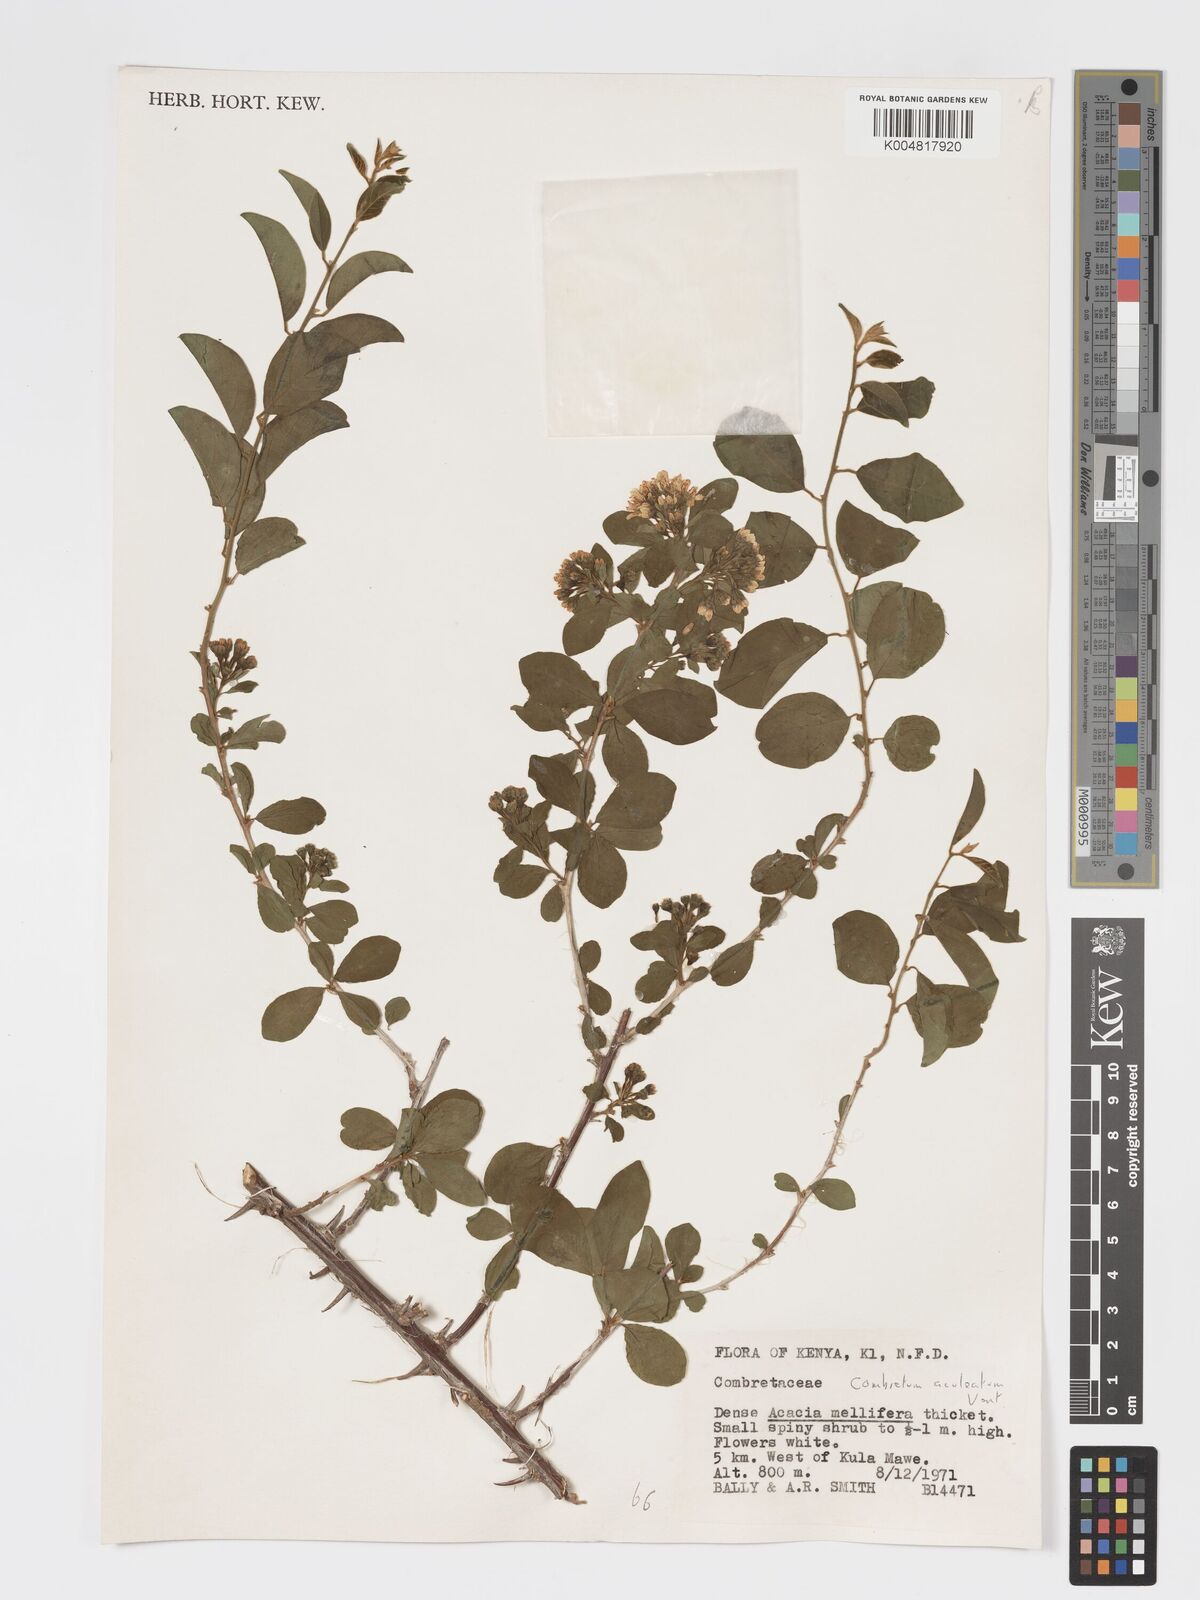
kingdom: Plantae
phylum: Tracheophyta
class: Magnoliopsida
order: Myrtales
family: Combretaceae
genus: Combretum
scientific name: Combretum aculeatum
